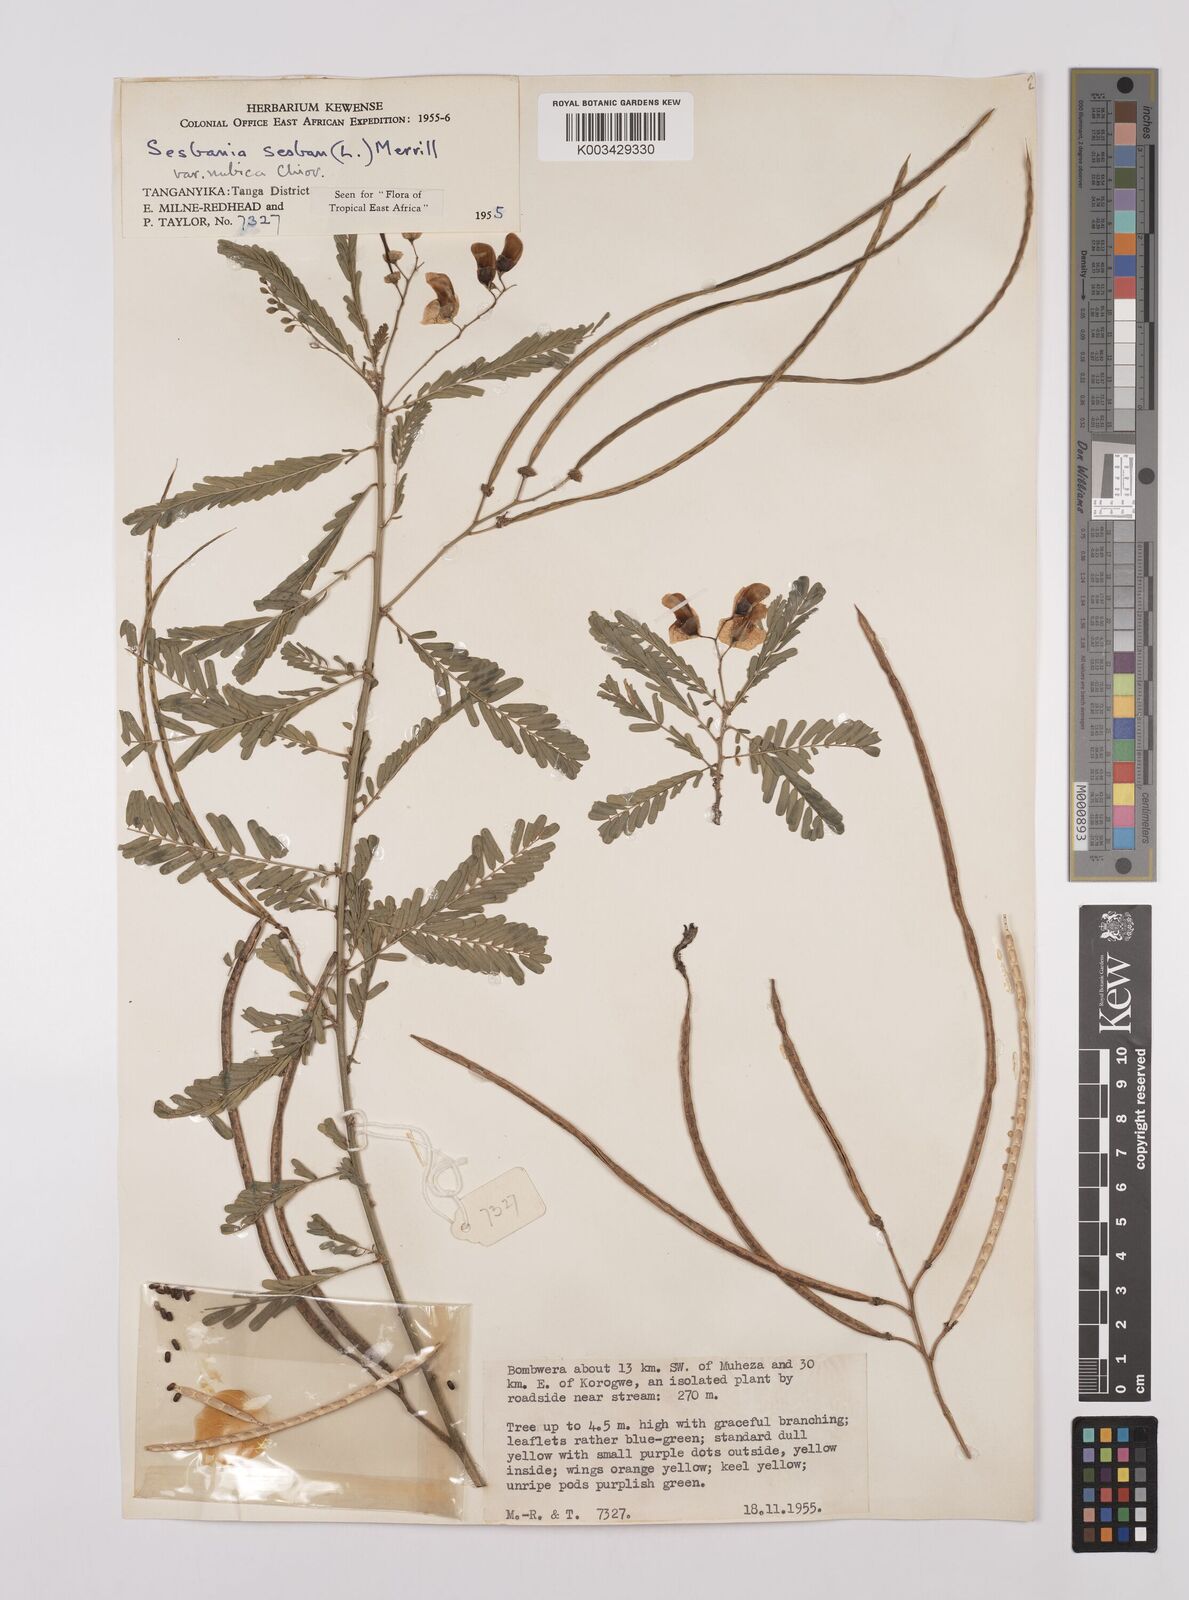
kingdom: Plantae
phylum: Tracheophyta
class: Magnoliopsida
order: Fabales
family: Fabaceae
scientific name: Fabaceae
